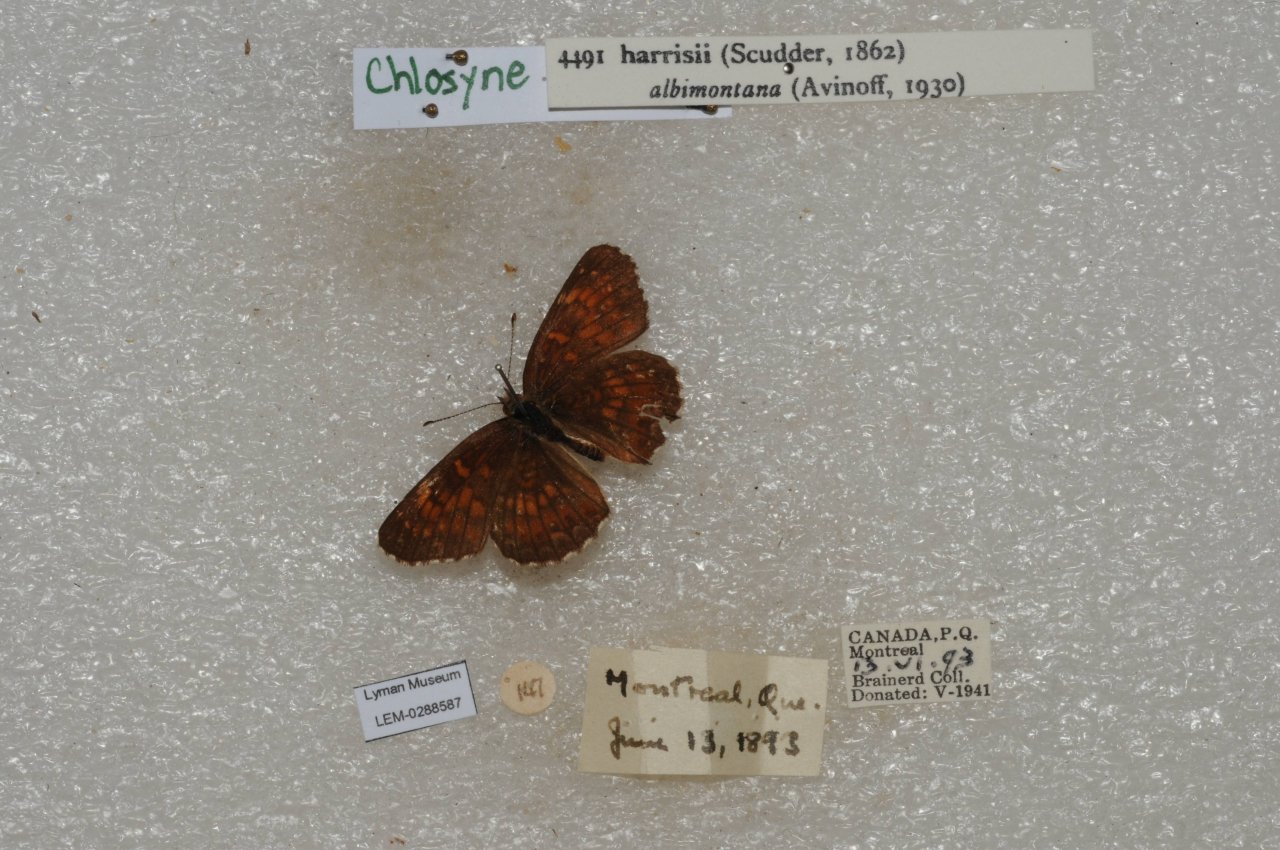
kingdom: Animalia
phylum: Arthropoda
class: Insecta
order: Lepidoptera
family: Nymphalidae
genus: Chlosyne
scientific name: Chlosyne harrisii
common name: Harris's Checkerspot
